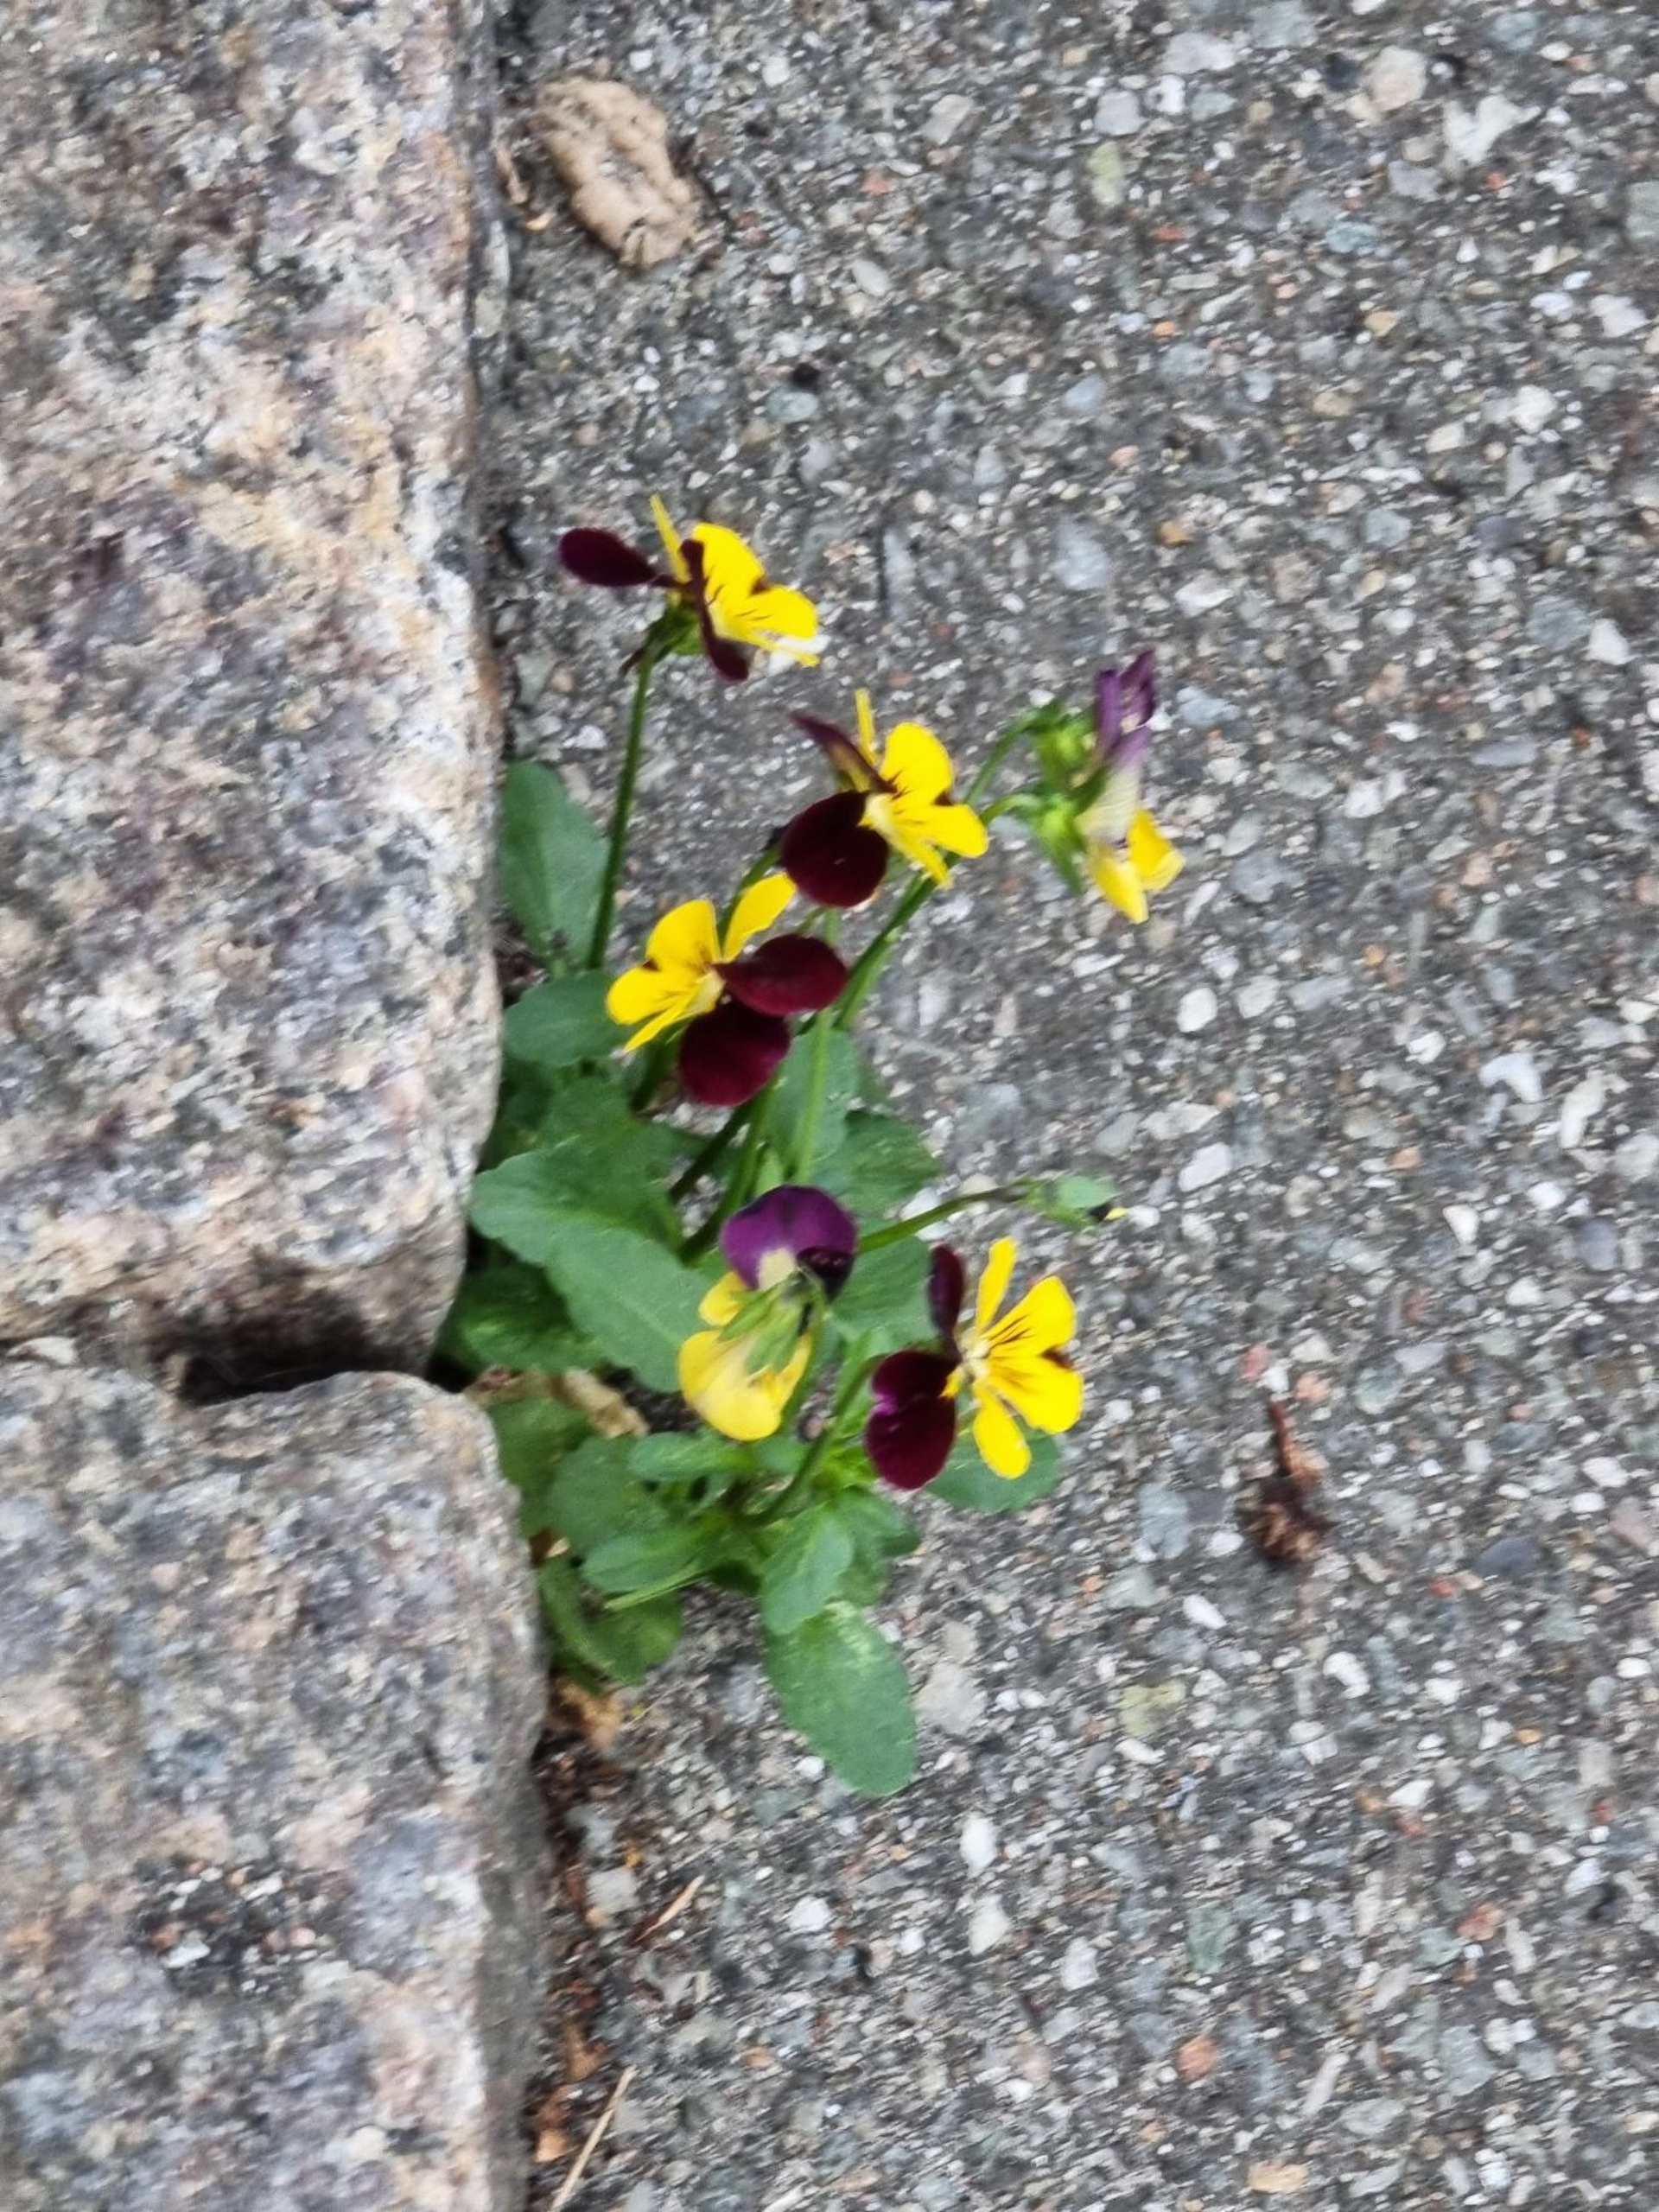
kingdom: Plantae
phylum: Tracheophyta
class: Magnoliopsida
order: Malpighiales
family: Violaceae
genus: Viola
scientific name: Viola wittrockiana
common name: Have-stedmoderblomst
